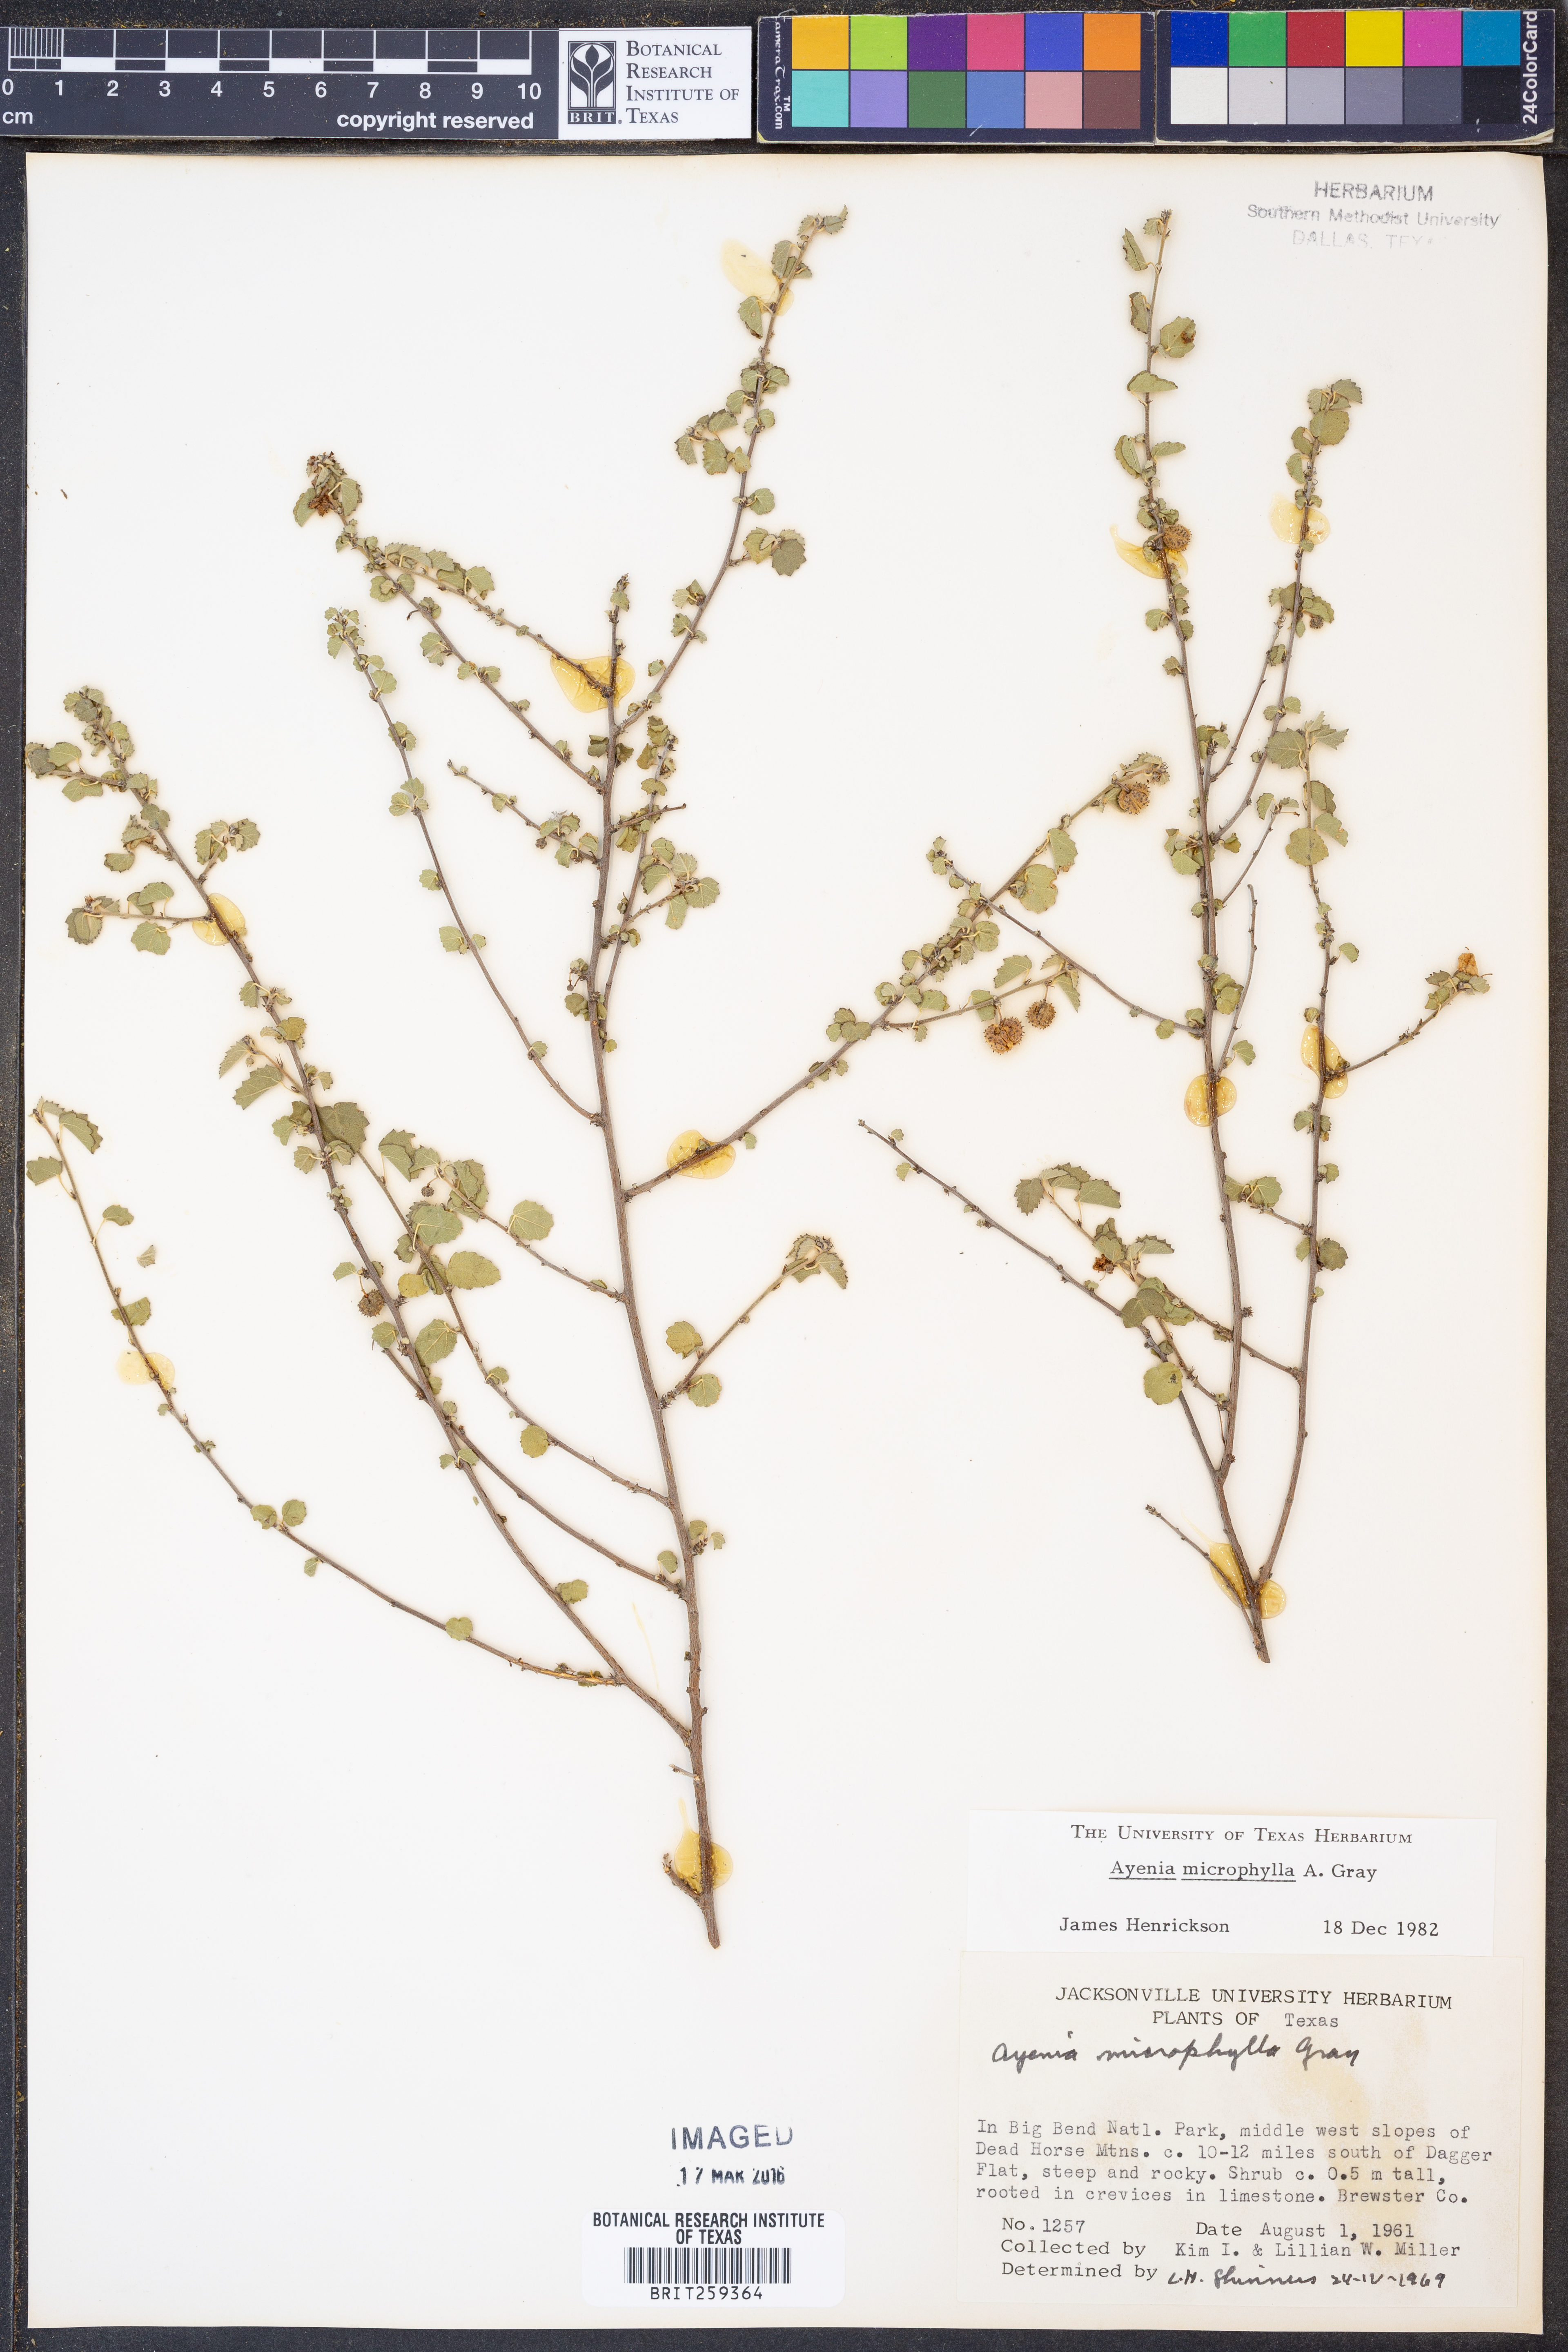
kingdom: Plantae
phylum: Tracheophyta
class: Magnoliopsida
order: Malvales
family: Malvaceae
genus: Ayenia
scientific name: Ayenia microphylla
